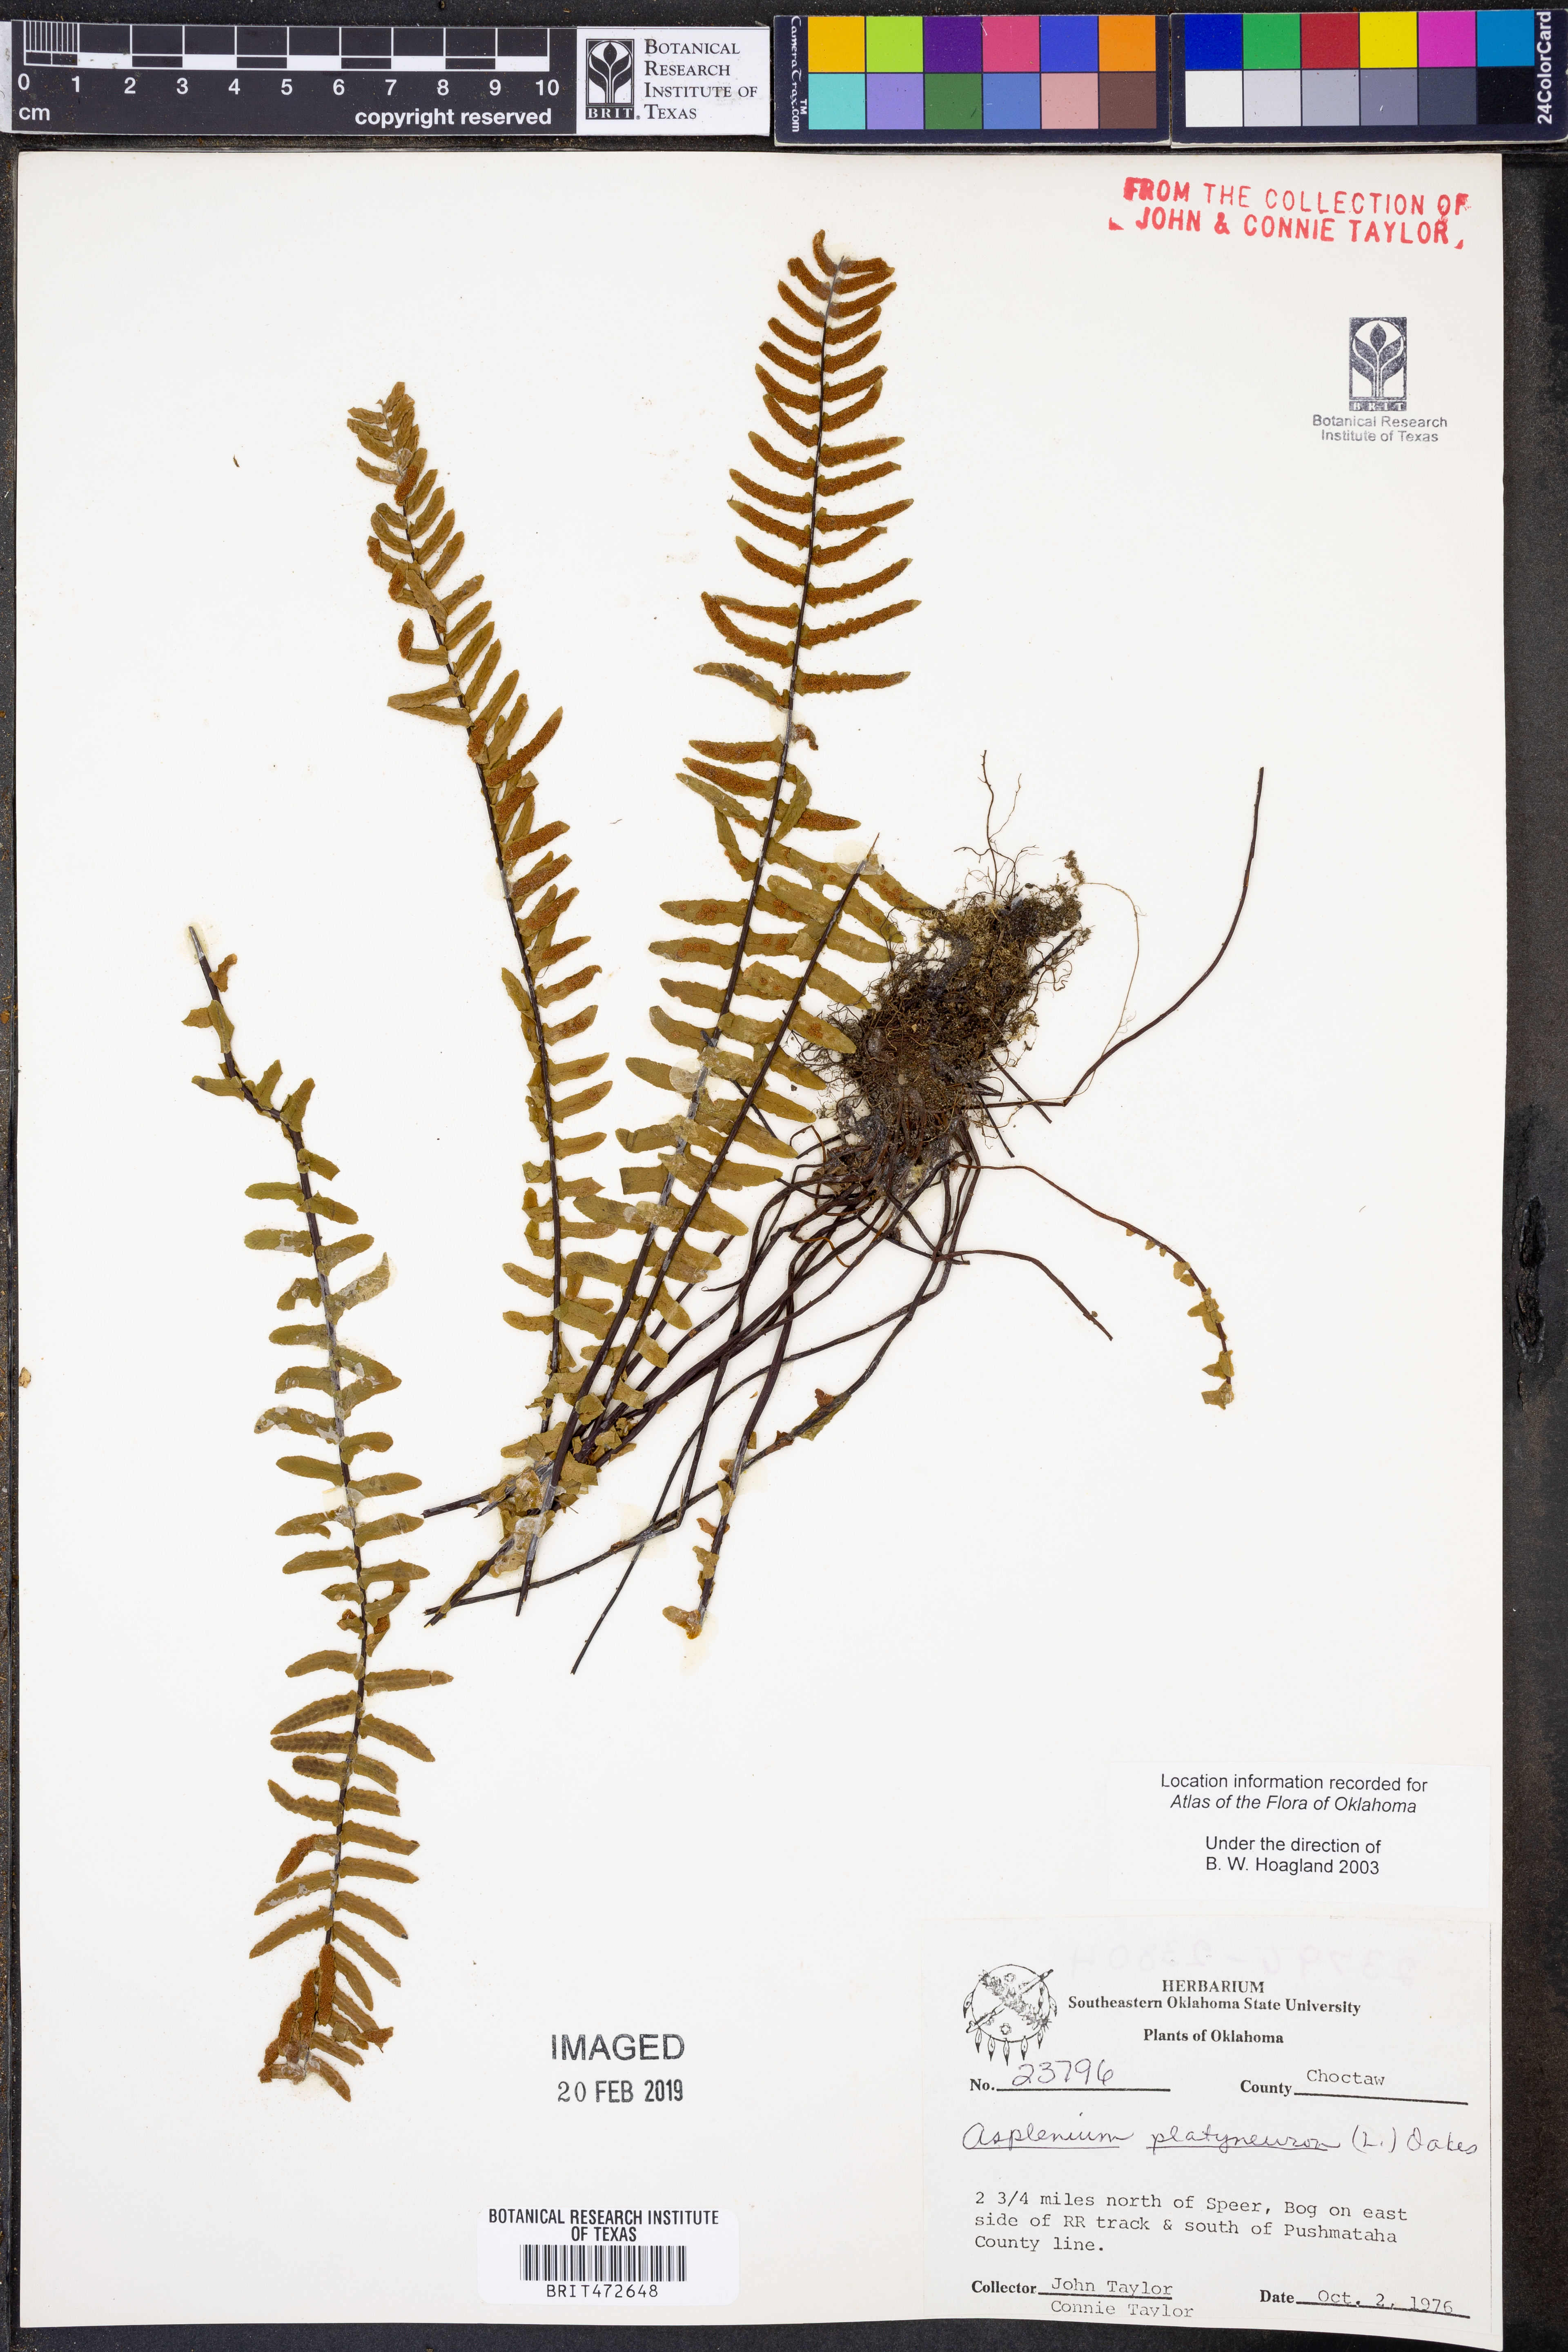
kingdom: Plantae
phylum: Tracheophyta
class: Polypodiopsida
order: Polypodiales
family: Aspleniaceae
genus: Asplenium
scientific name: Asplenium platyneuron
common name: Ebony spleenwort
